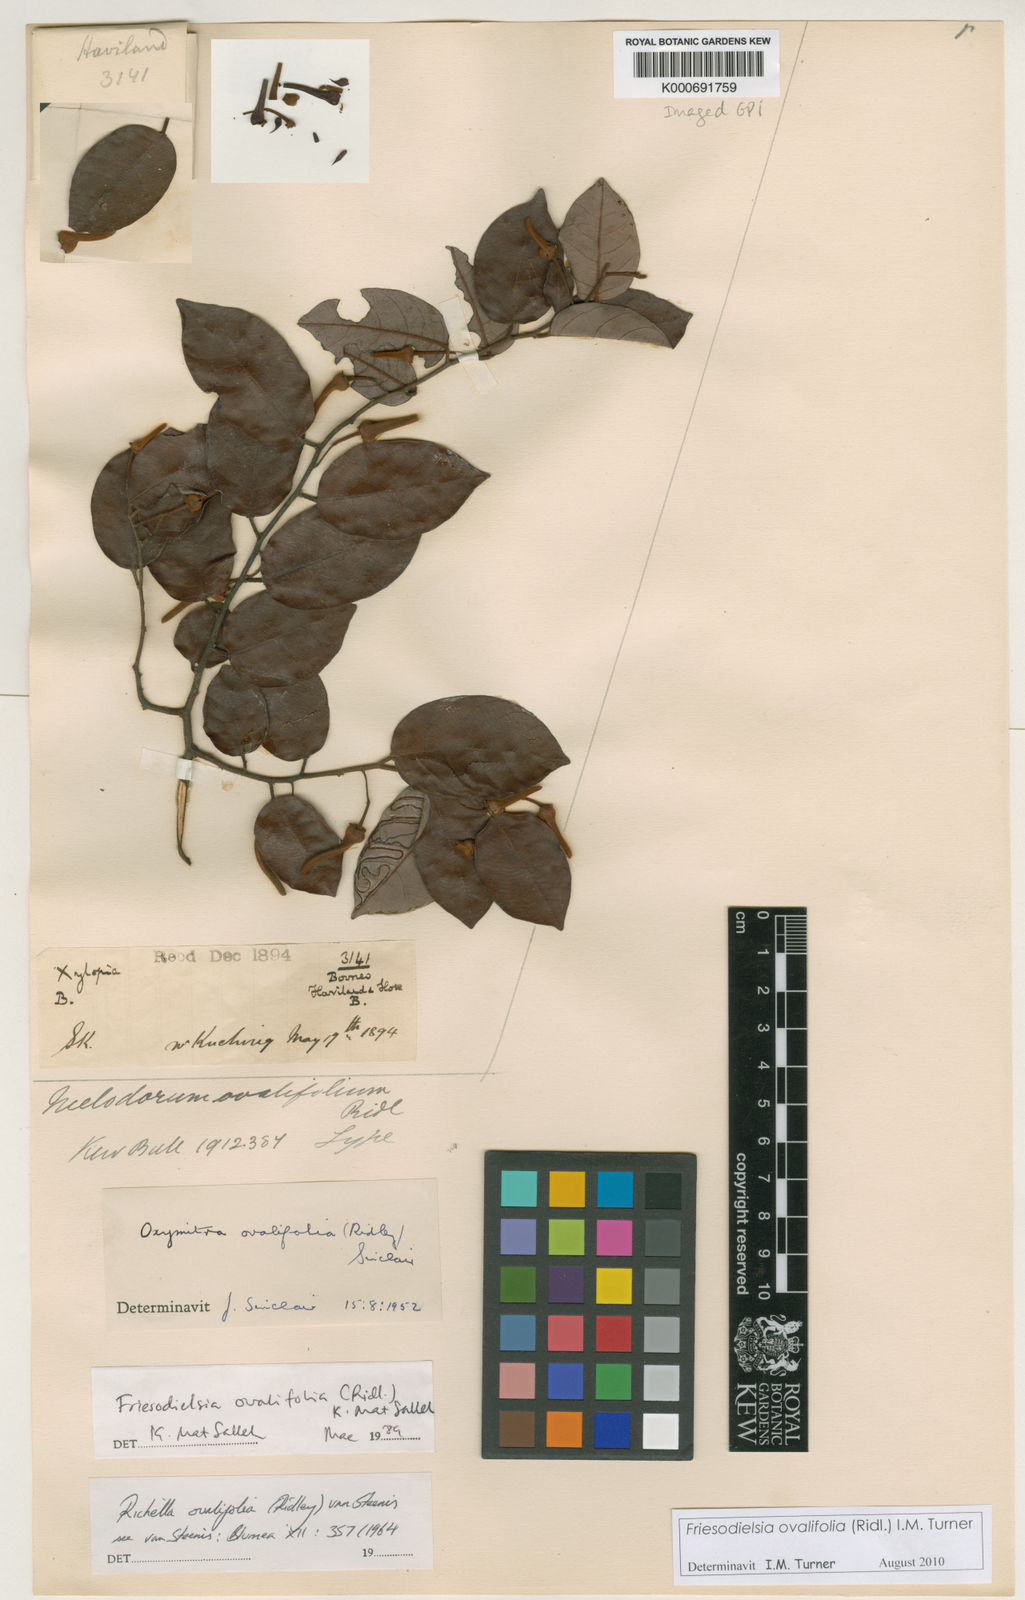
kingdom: Plantae
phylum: Tracheophyta
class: Magnoliopsida
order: Magnoliales
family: Annonaceae
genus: Friesodielsia
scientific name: Friesodielsia ovalifolia
